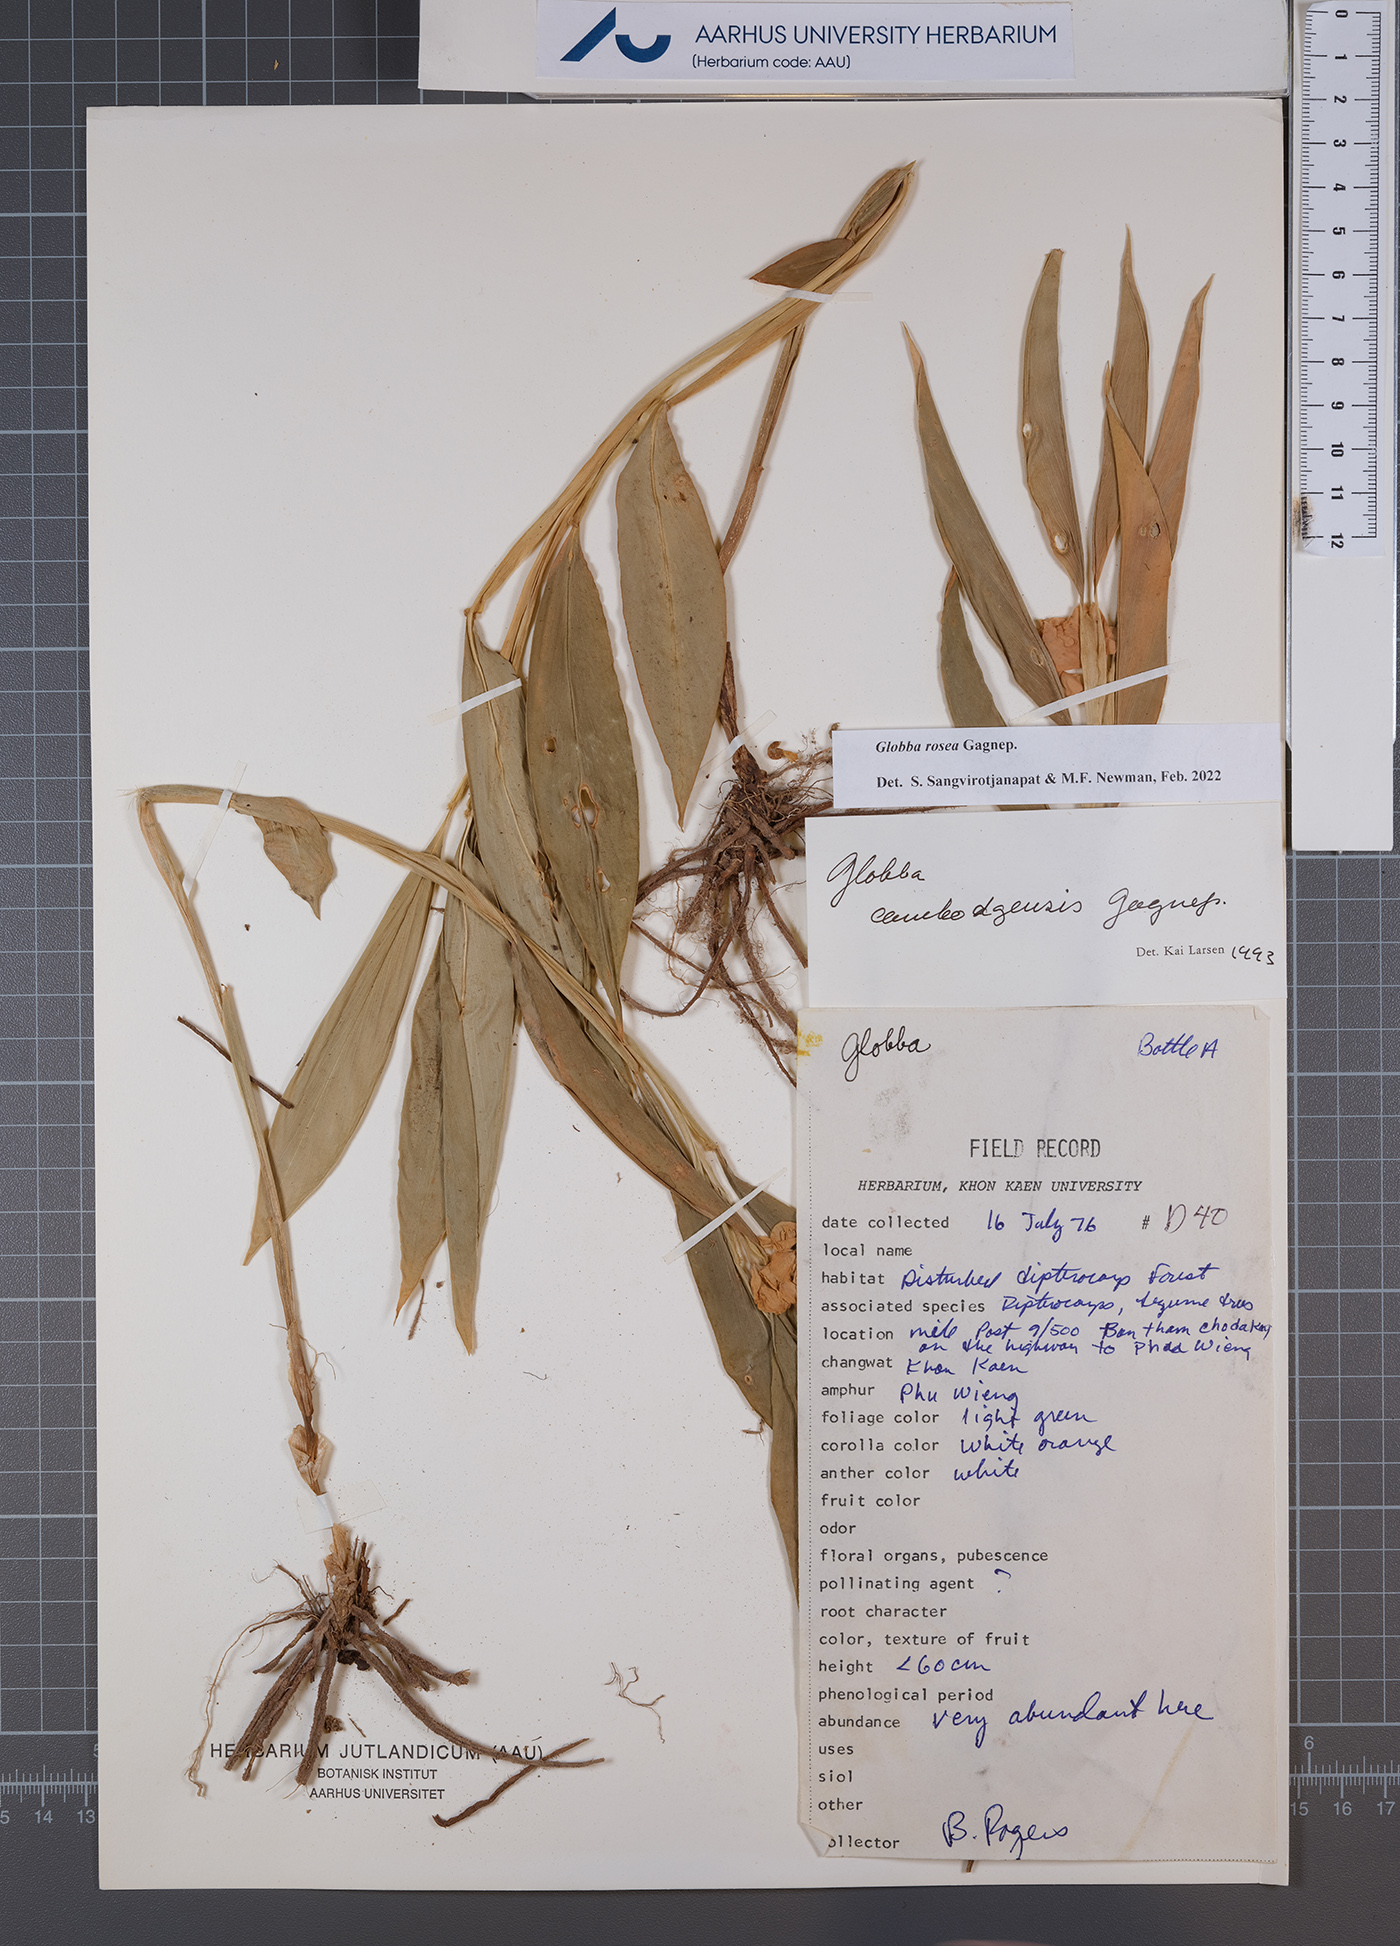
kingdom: Plantae
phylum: Tracheophyta
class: Liliopsida
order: Zingiberales
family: Zingiberaceae
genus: Globba
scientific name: Globba rosea
